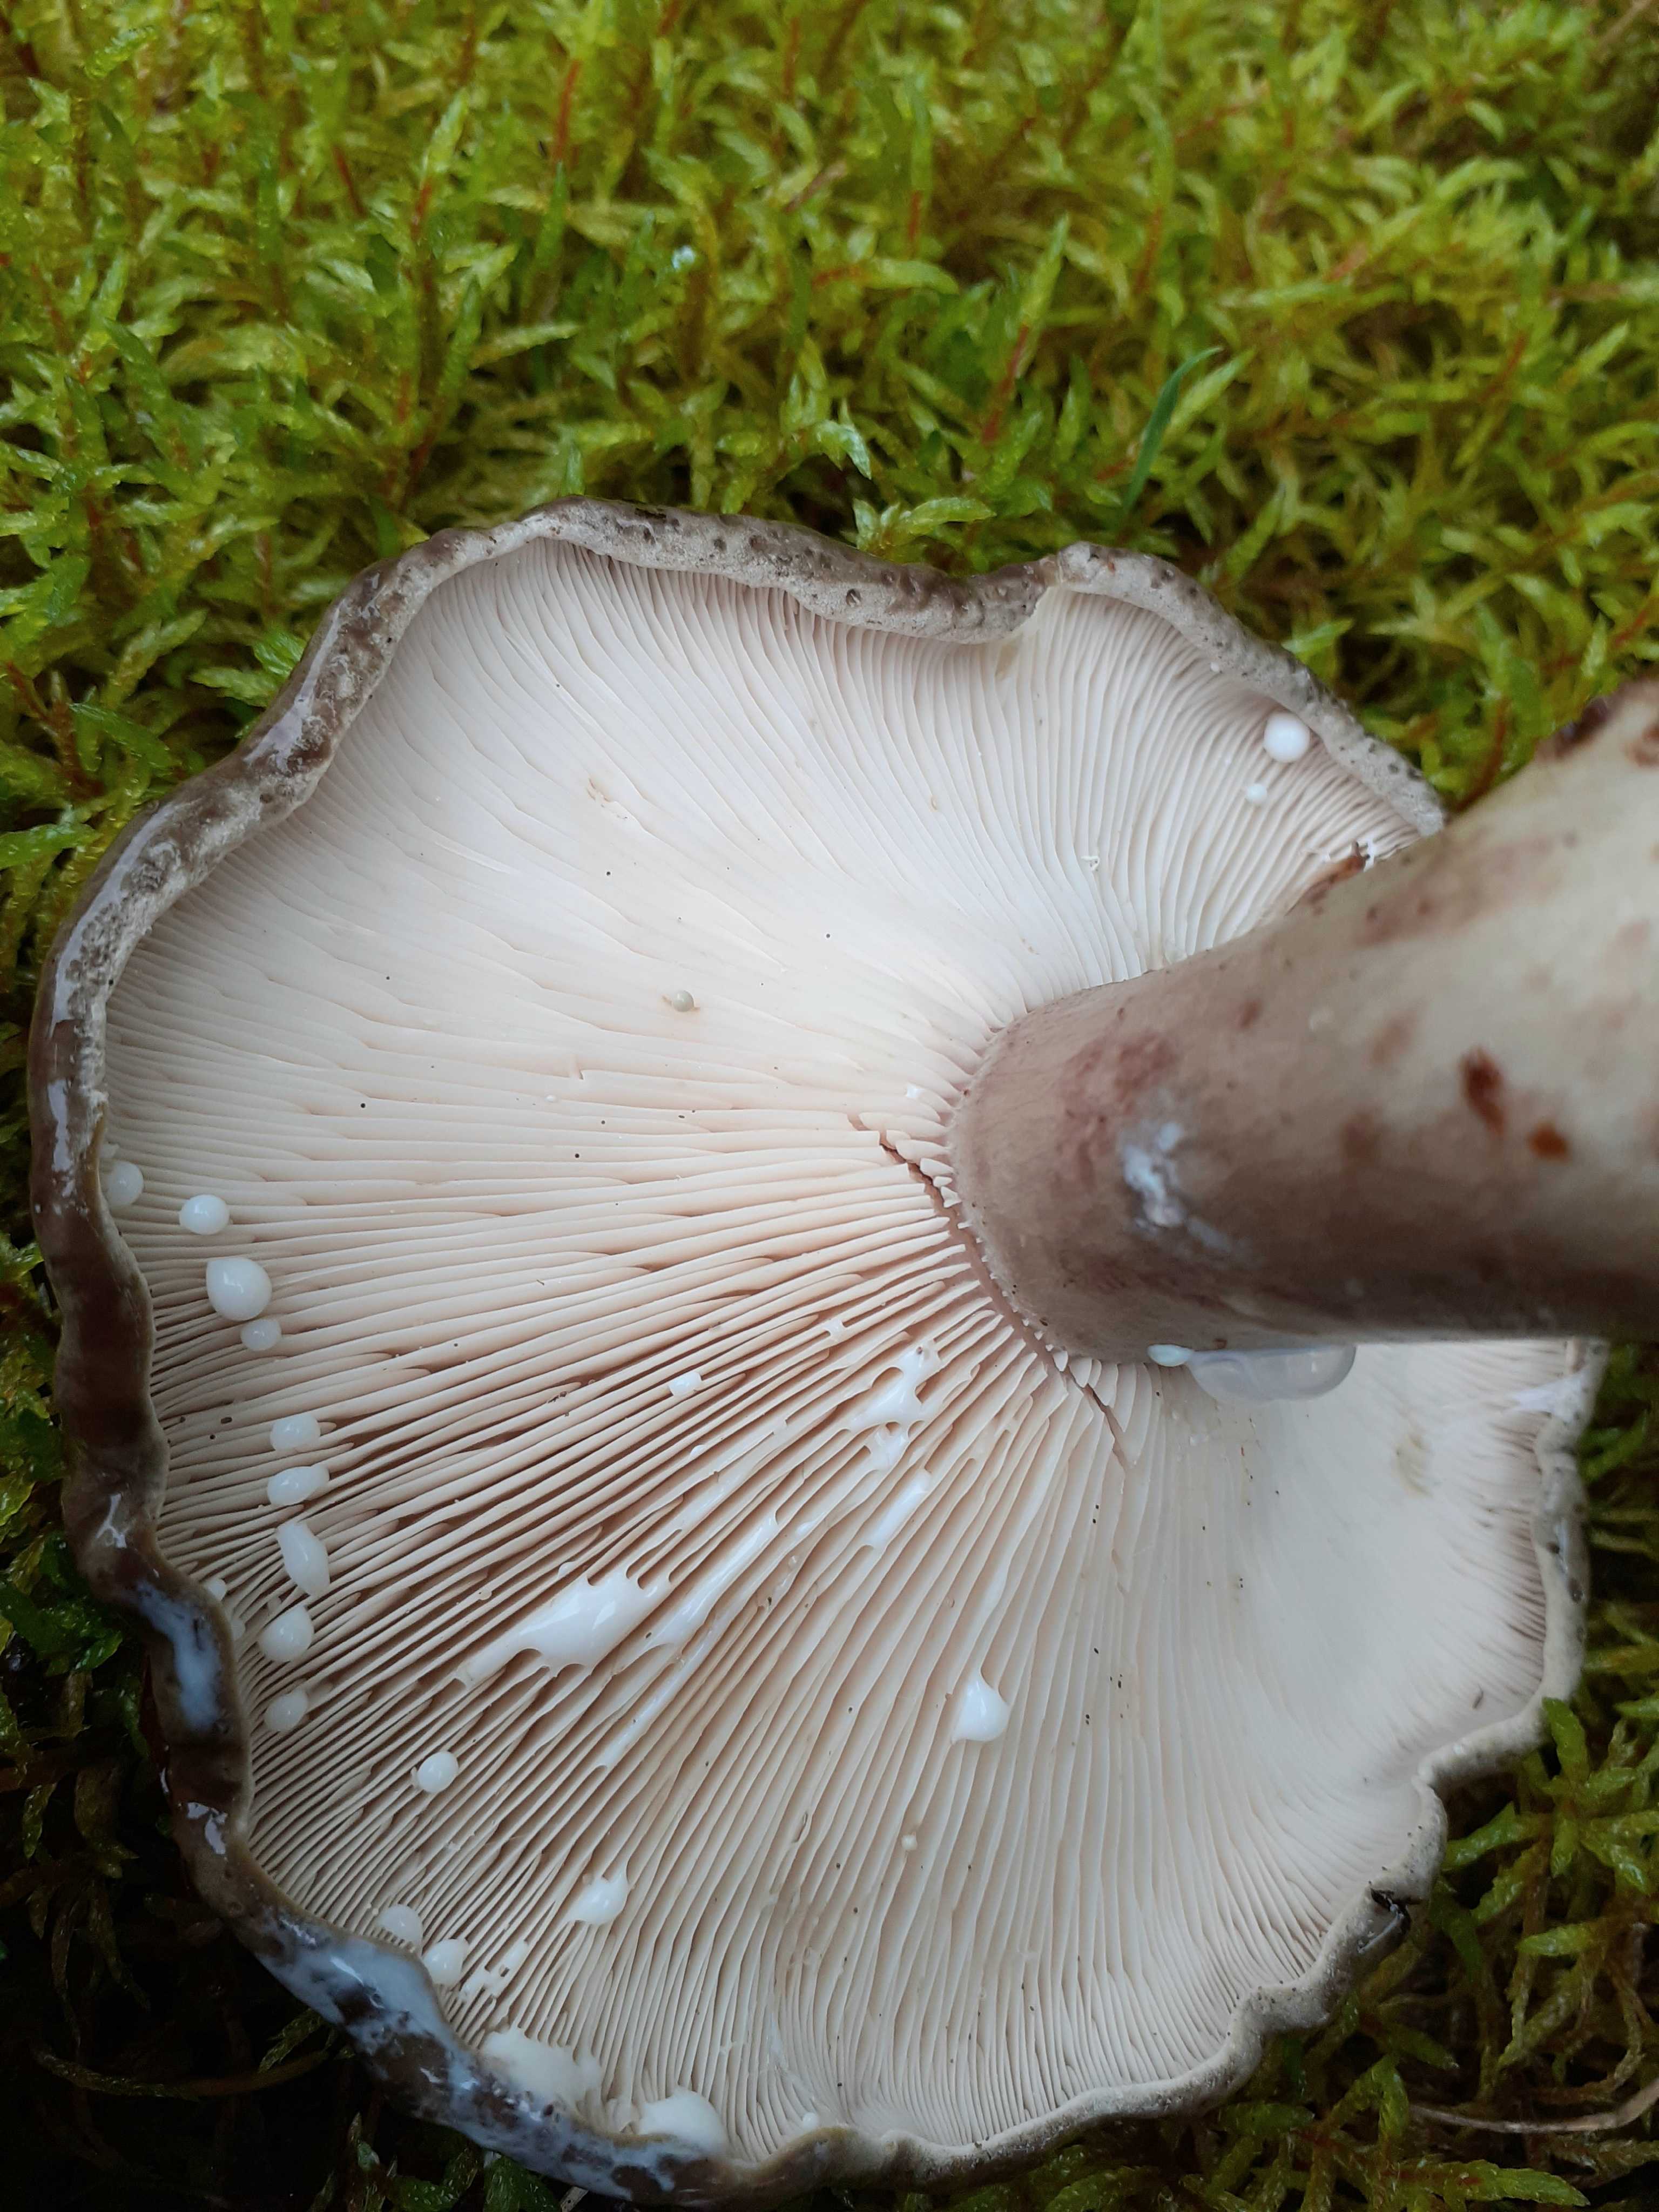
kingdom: Fungi
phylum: Basidiomycota
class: Agaricomycetes
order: Russulales
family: Russulaceae
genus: Lactarius
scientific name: Lactarius fluens
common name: lysrandet mælkehat
